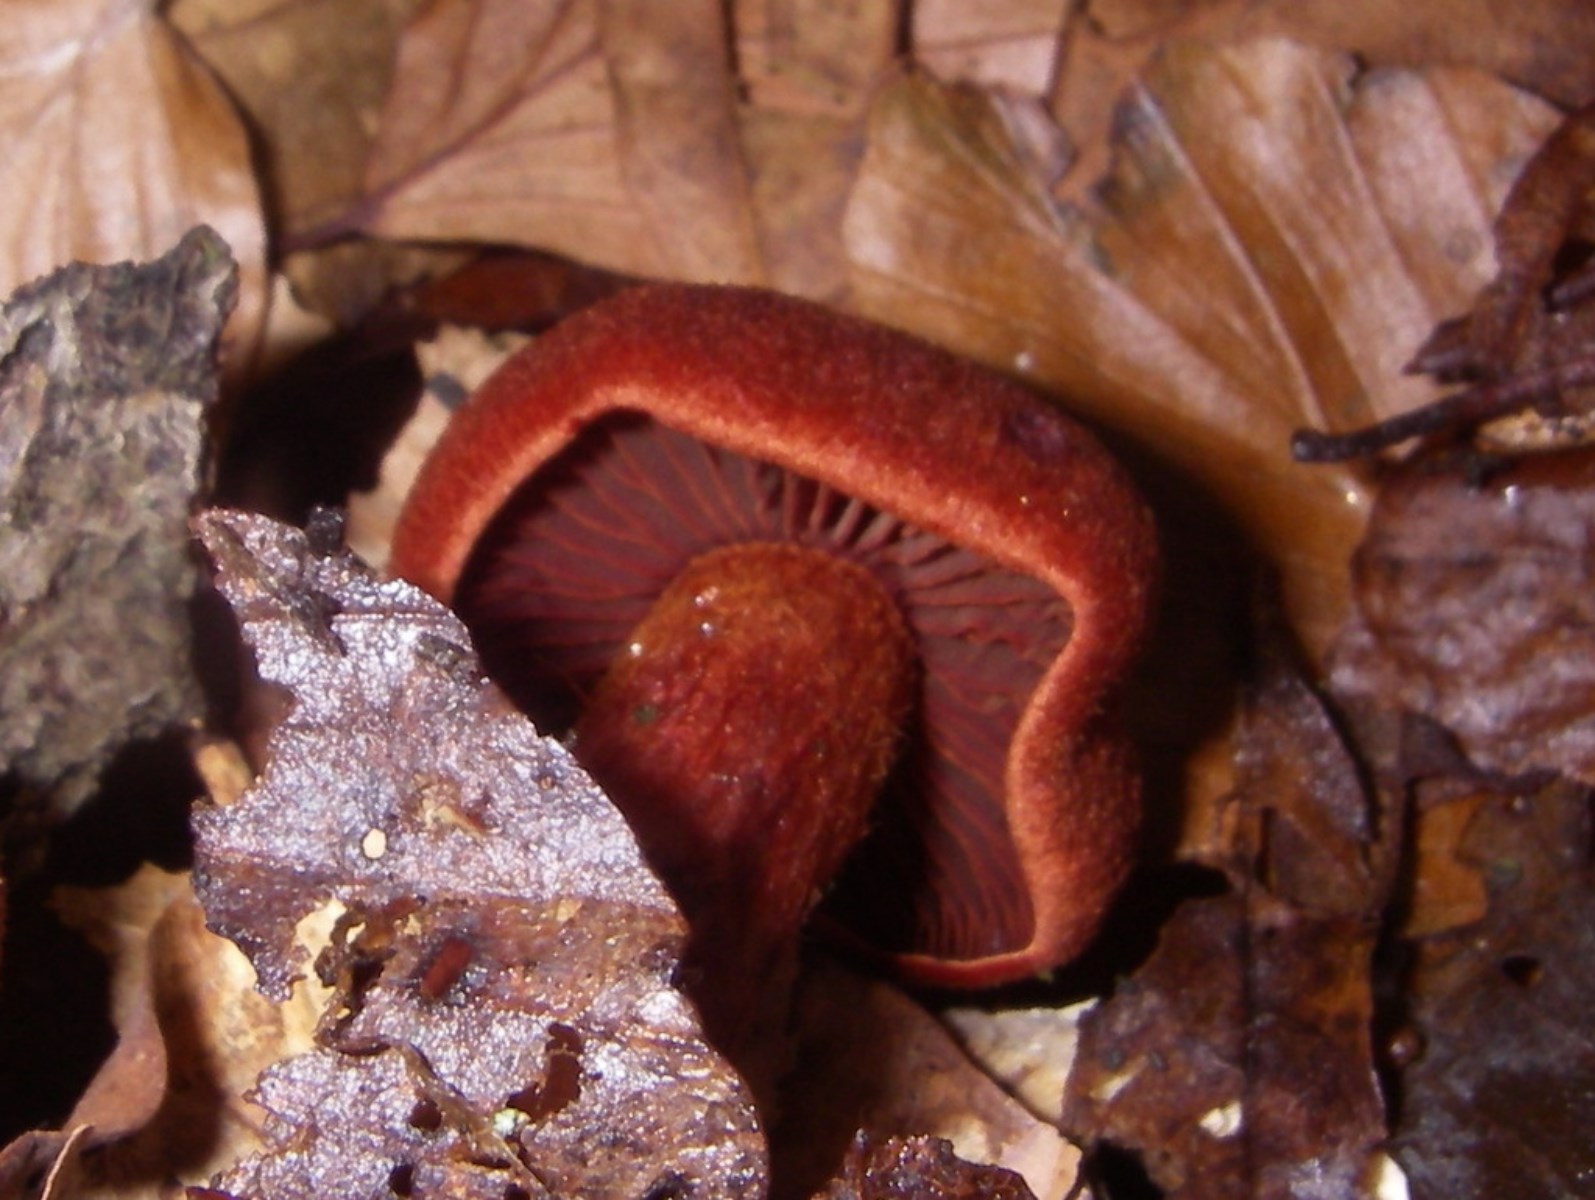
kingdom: Fungi
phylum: Basidiomycota
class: Agaricomycetes
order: Agaricales
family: Cortinariaceae
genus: Cortinarius
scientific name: Cortinarius sanguineus
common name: Bloodred webcap
